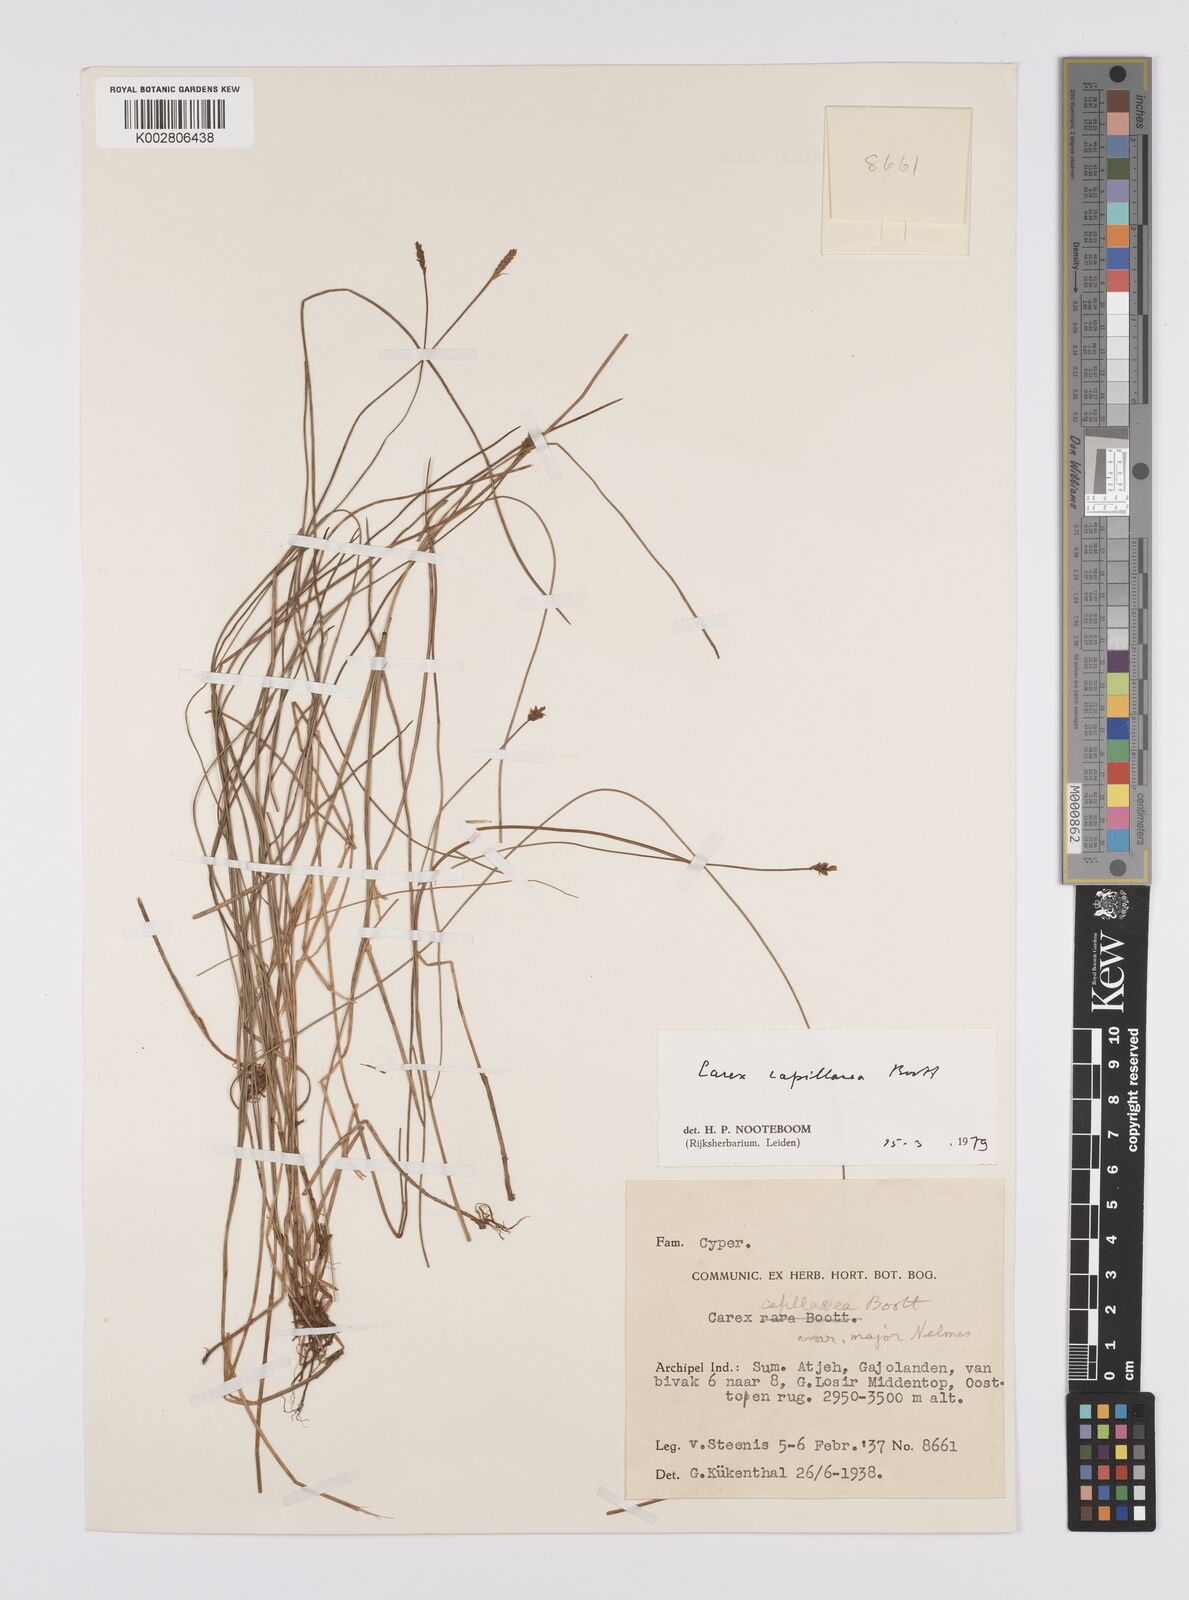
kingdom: Plantae
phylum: Tracheophyta
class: Liliopsida
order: Poales
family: Cyperaceae
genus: Carex
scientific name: Carex capillacea
